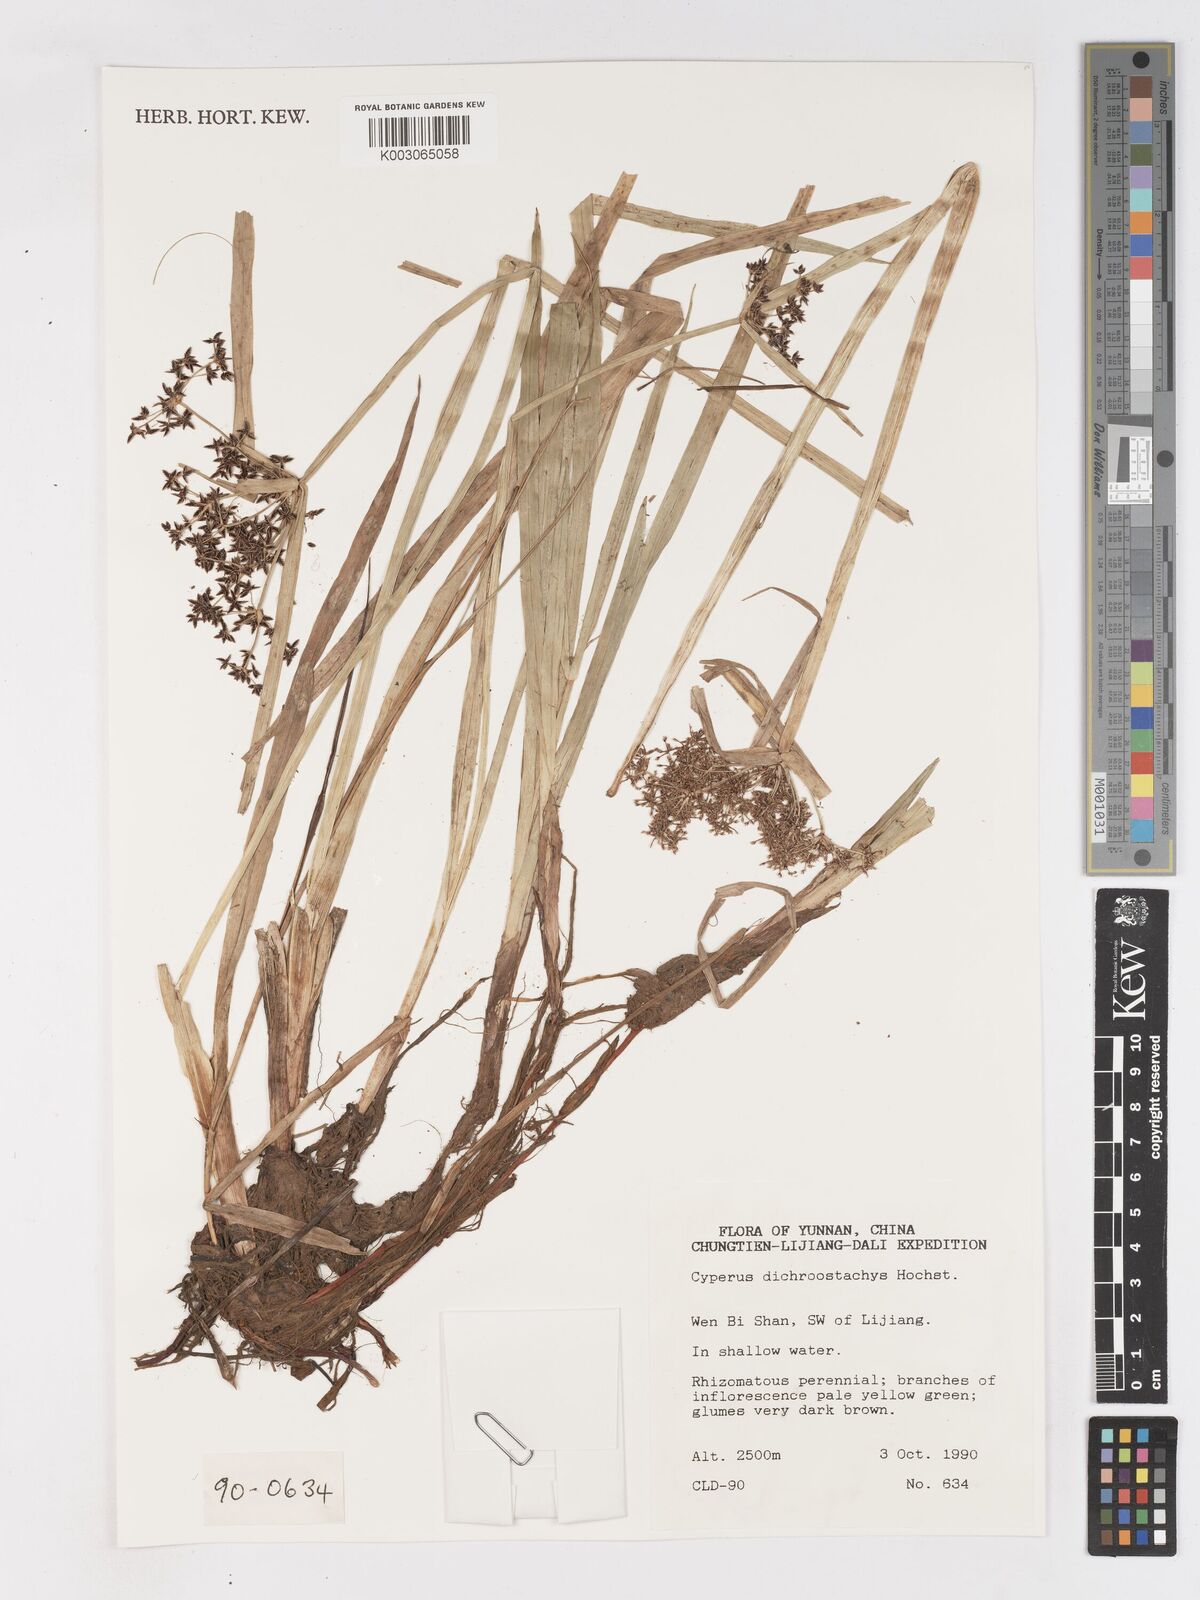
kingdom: Plantae
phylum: Tracheophyta
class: Liliopsida
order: Poales
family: Cyperaceae
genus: Cyperus
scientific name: Cyperus dichrostachyus
